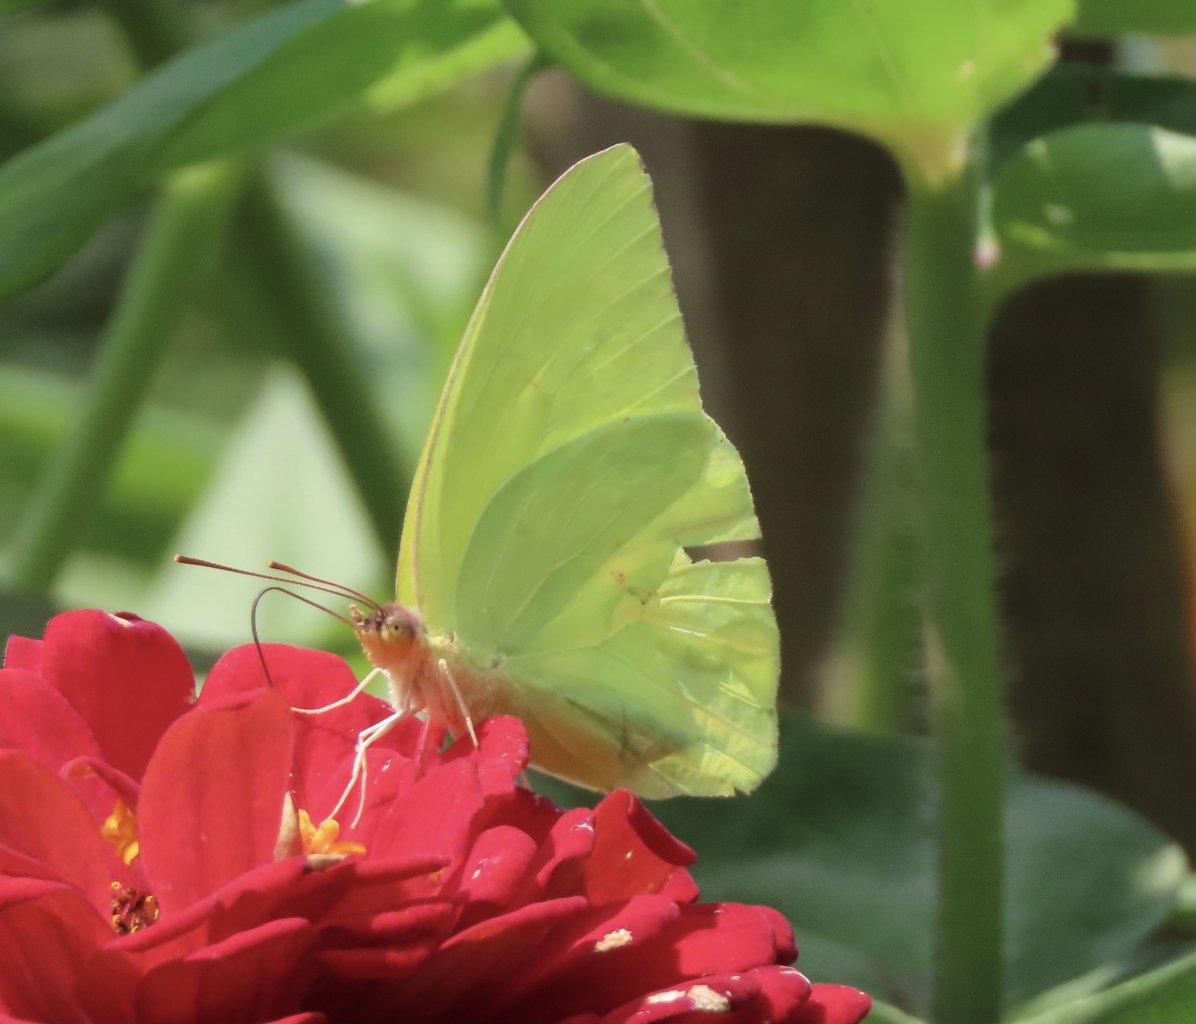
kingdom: Animalia
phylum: Arthropoda
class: Insecta
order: Lepidoptera
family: Pieridae
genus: Phoebis
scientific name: Phoebis sennae
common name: Cloudless Sulphur
